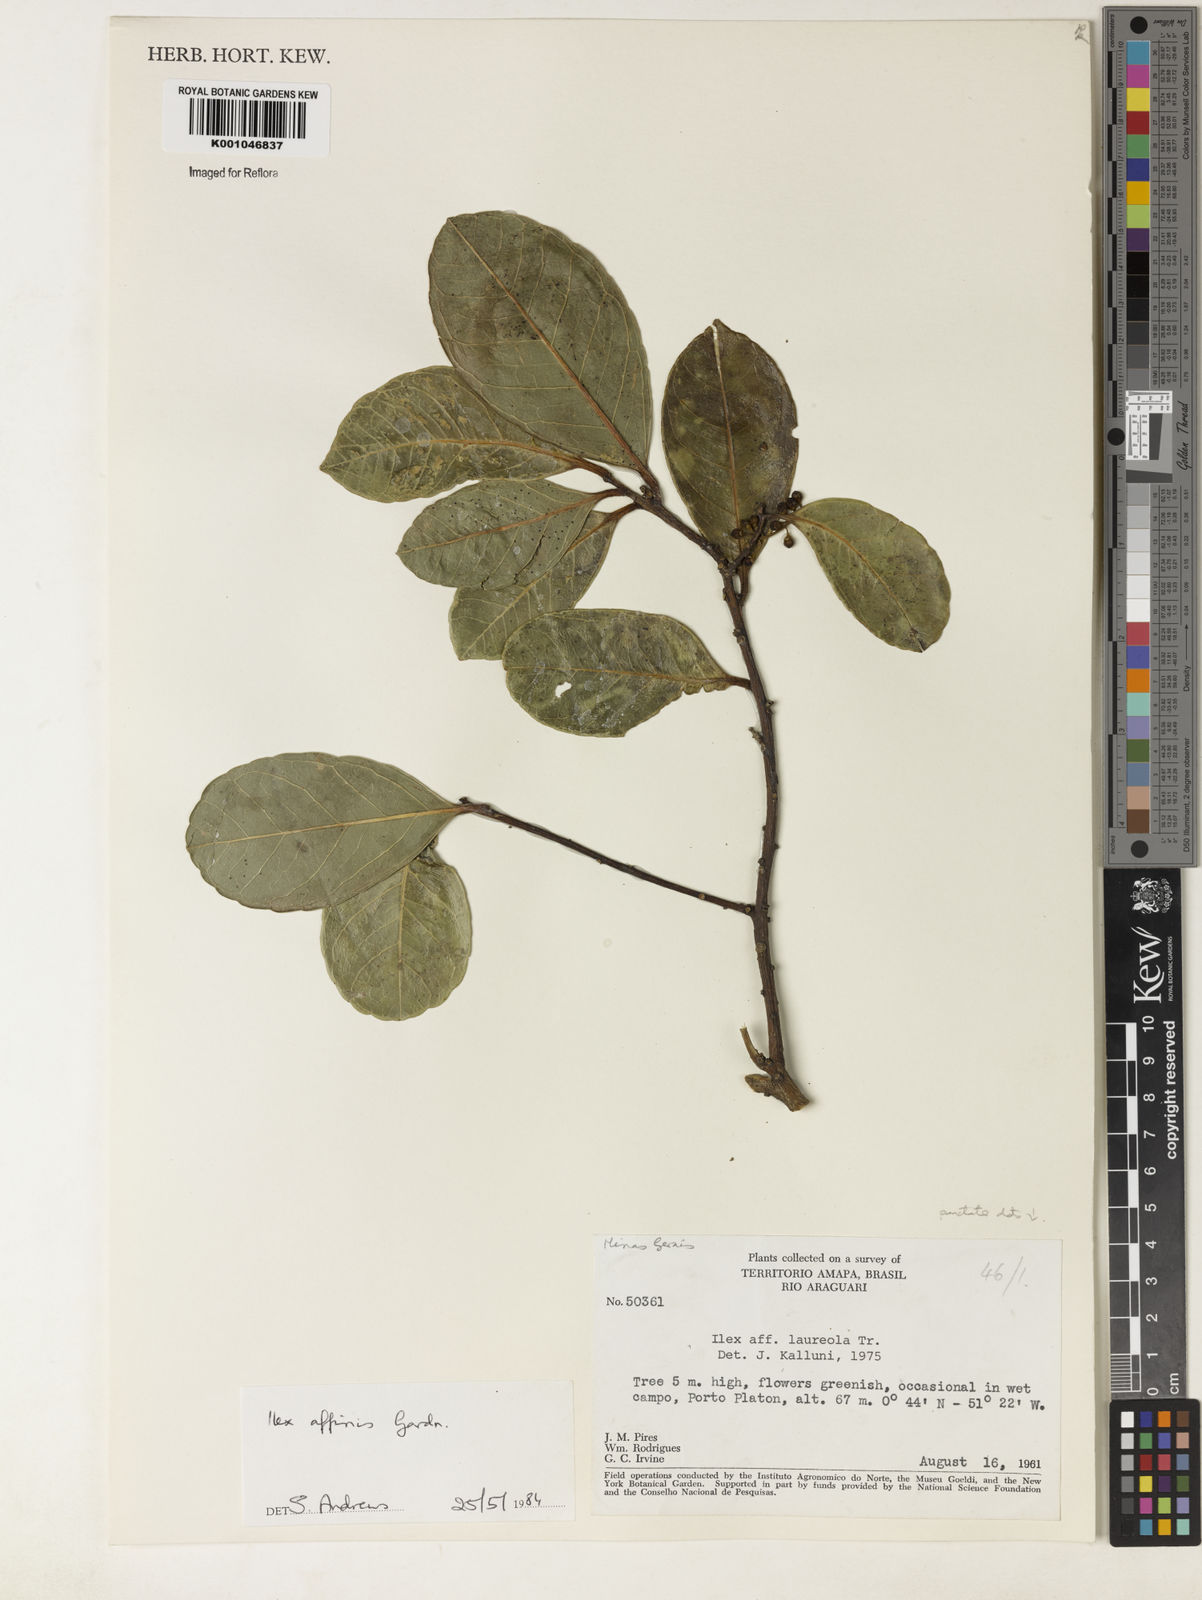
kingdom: Plantae
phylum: Tracheophyta
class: Magnoliopsida
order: Aquifoliales
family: Aquifoliaceae
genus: Ilex
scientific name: Ilex affinis
